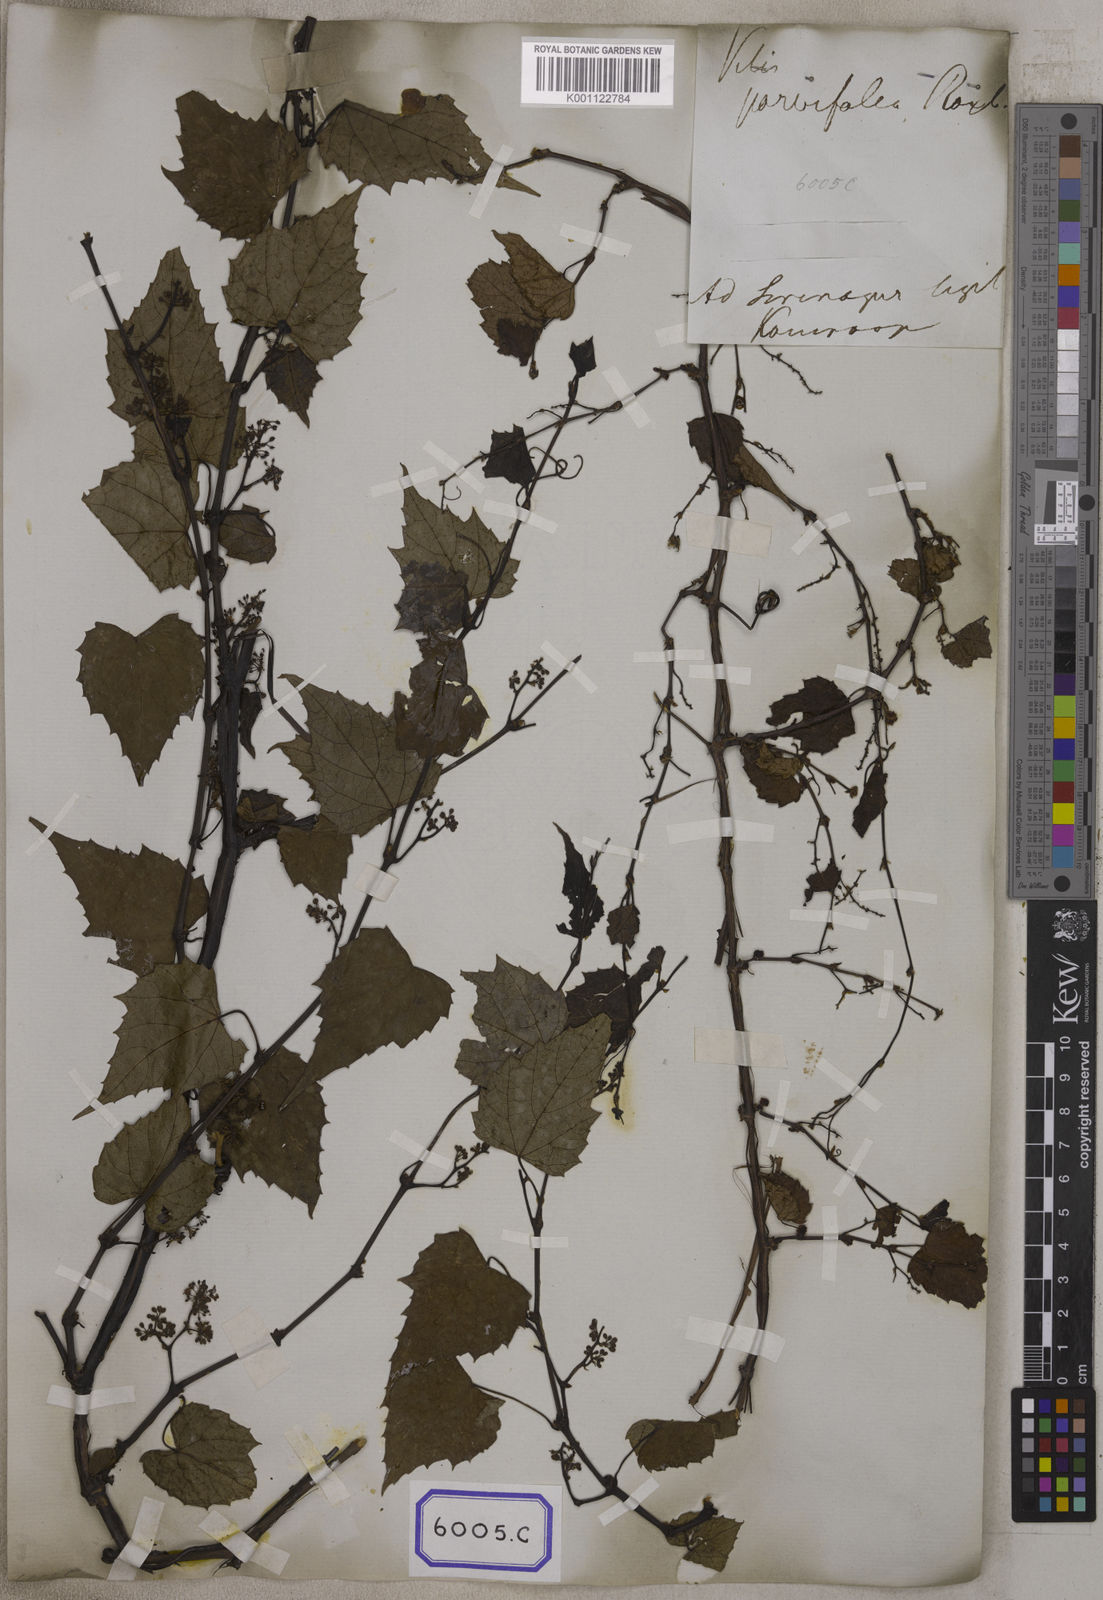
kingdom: Plantae
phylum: Tracheophyta
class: Magnoliopsida
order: Vitales
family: Vitaceae
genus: Vitis
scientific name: Vitis flexuosa
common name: Creeping grape
